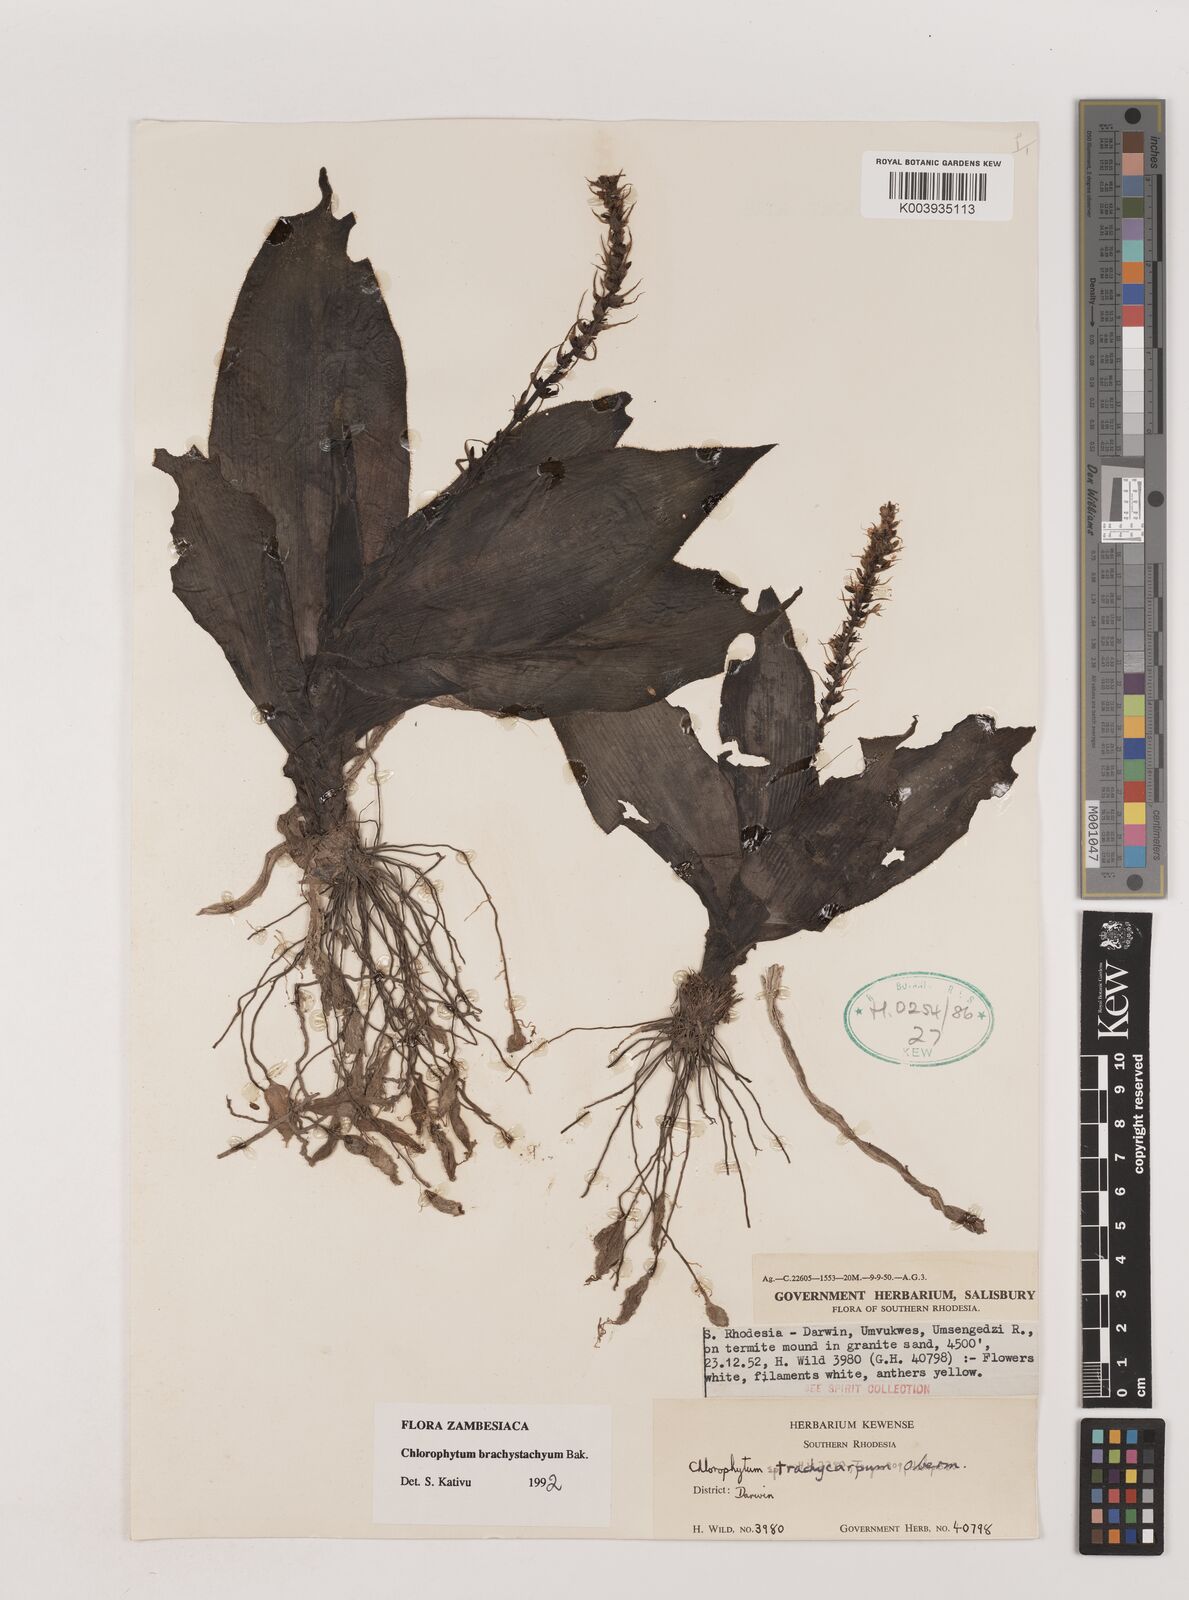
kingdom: Plantae
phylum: Tracheophyta
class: Liliopsida
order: Asparagales
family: Asparagaceae
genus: Chlorophytum
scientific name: Chlorophytum brachystachyum
